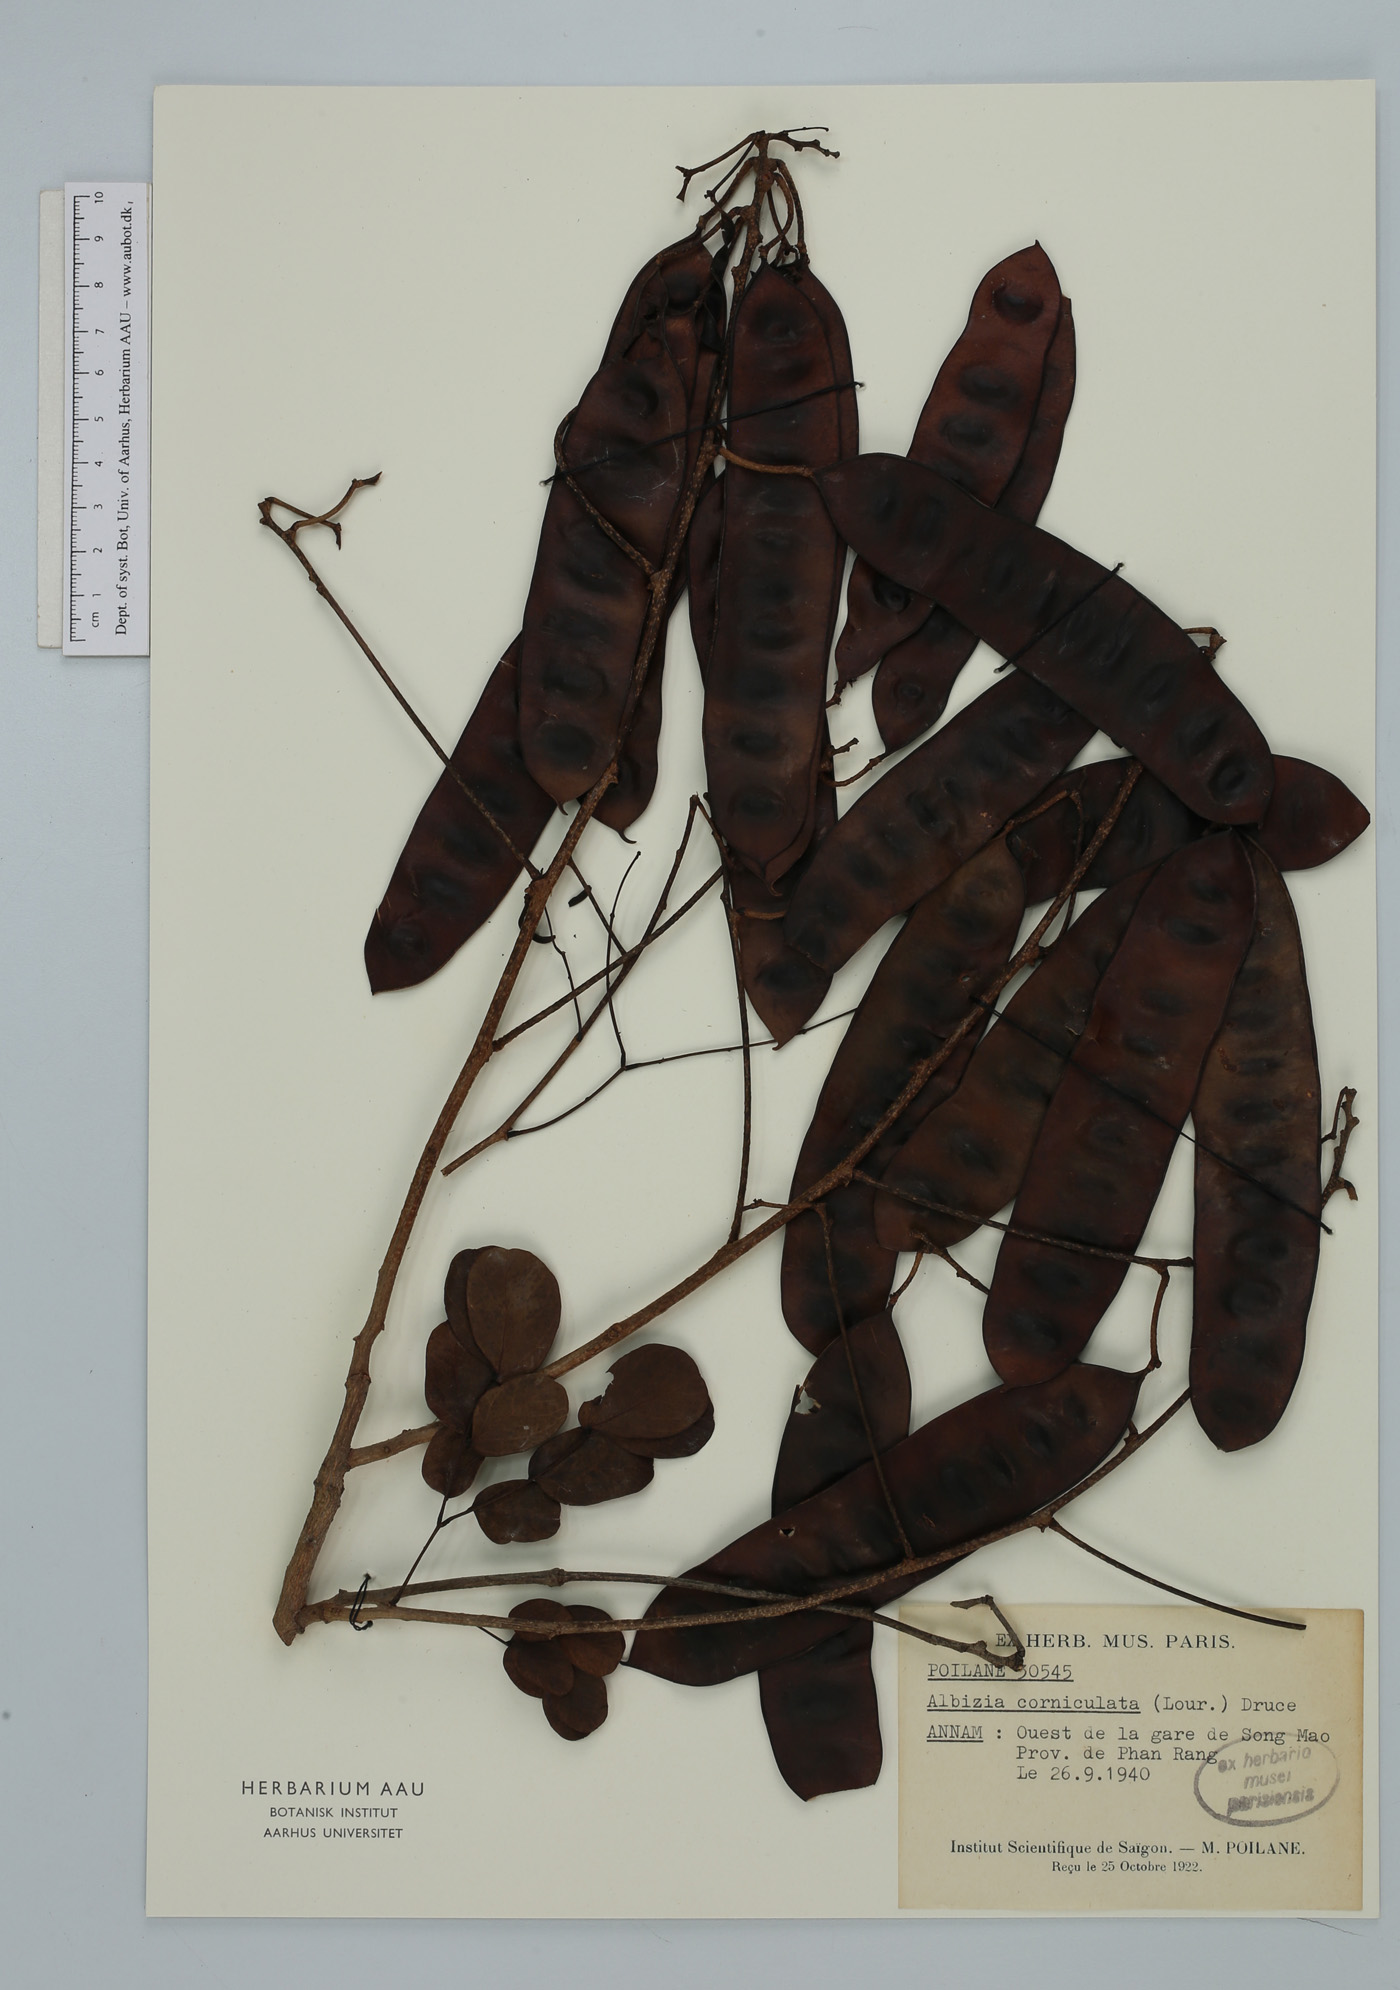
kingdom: Plantae
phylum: Tracheophyta
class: Magnoliopsida
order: Fabales
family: Fabaceae
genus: Albizia
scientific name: Albizia corniculata
